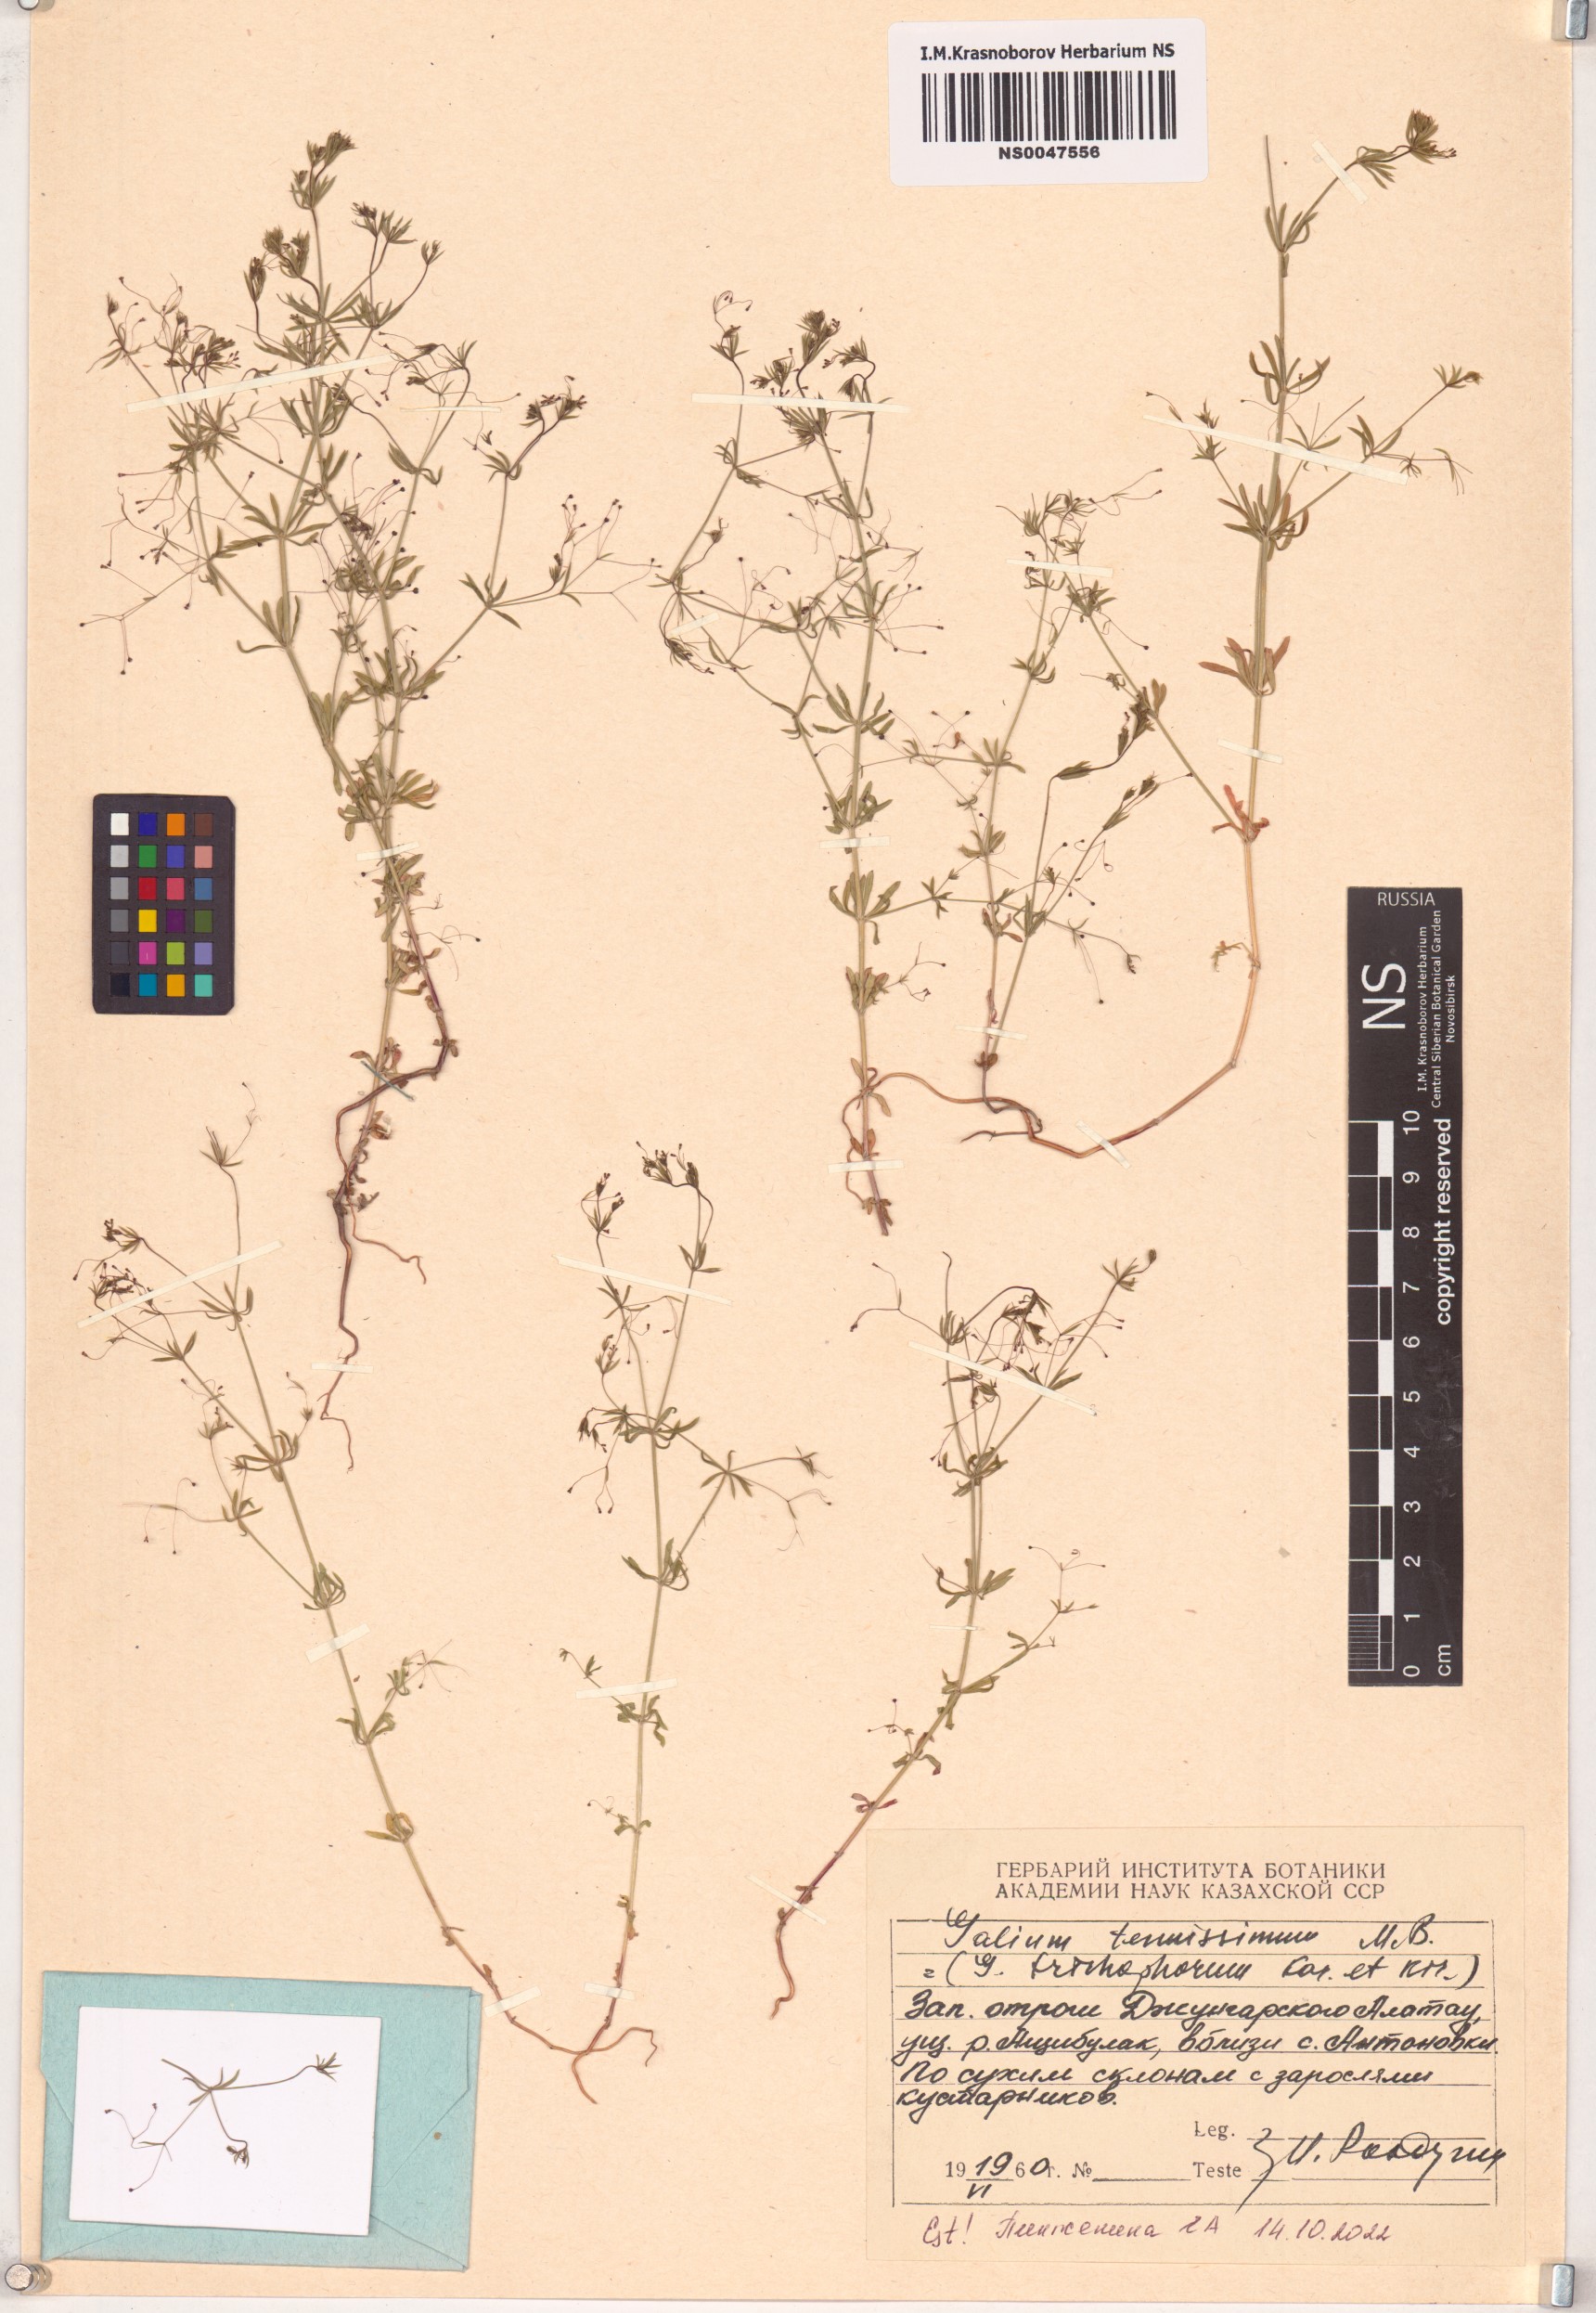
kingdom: Plantae
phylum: Tracheophyta
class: Magnoliopsida
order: Gentianales
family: Rubiaceae
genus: Galium
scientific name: Galium tenuissimum
